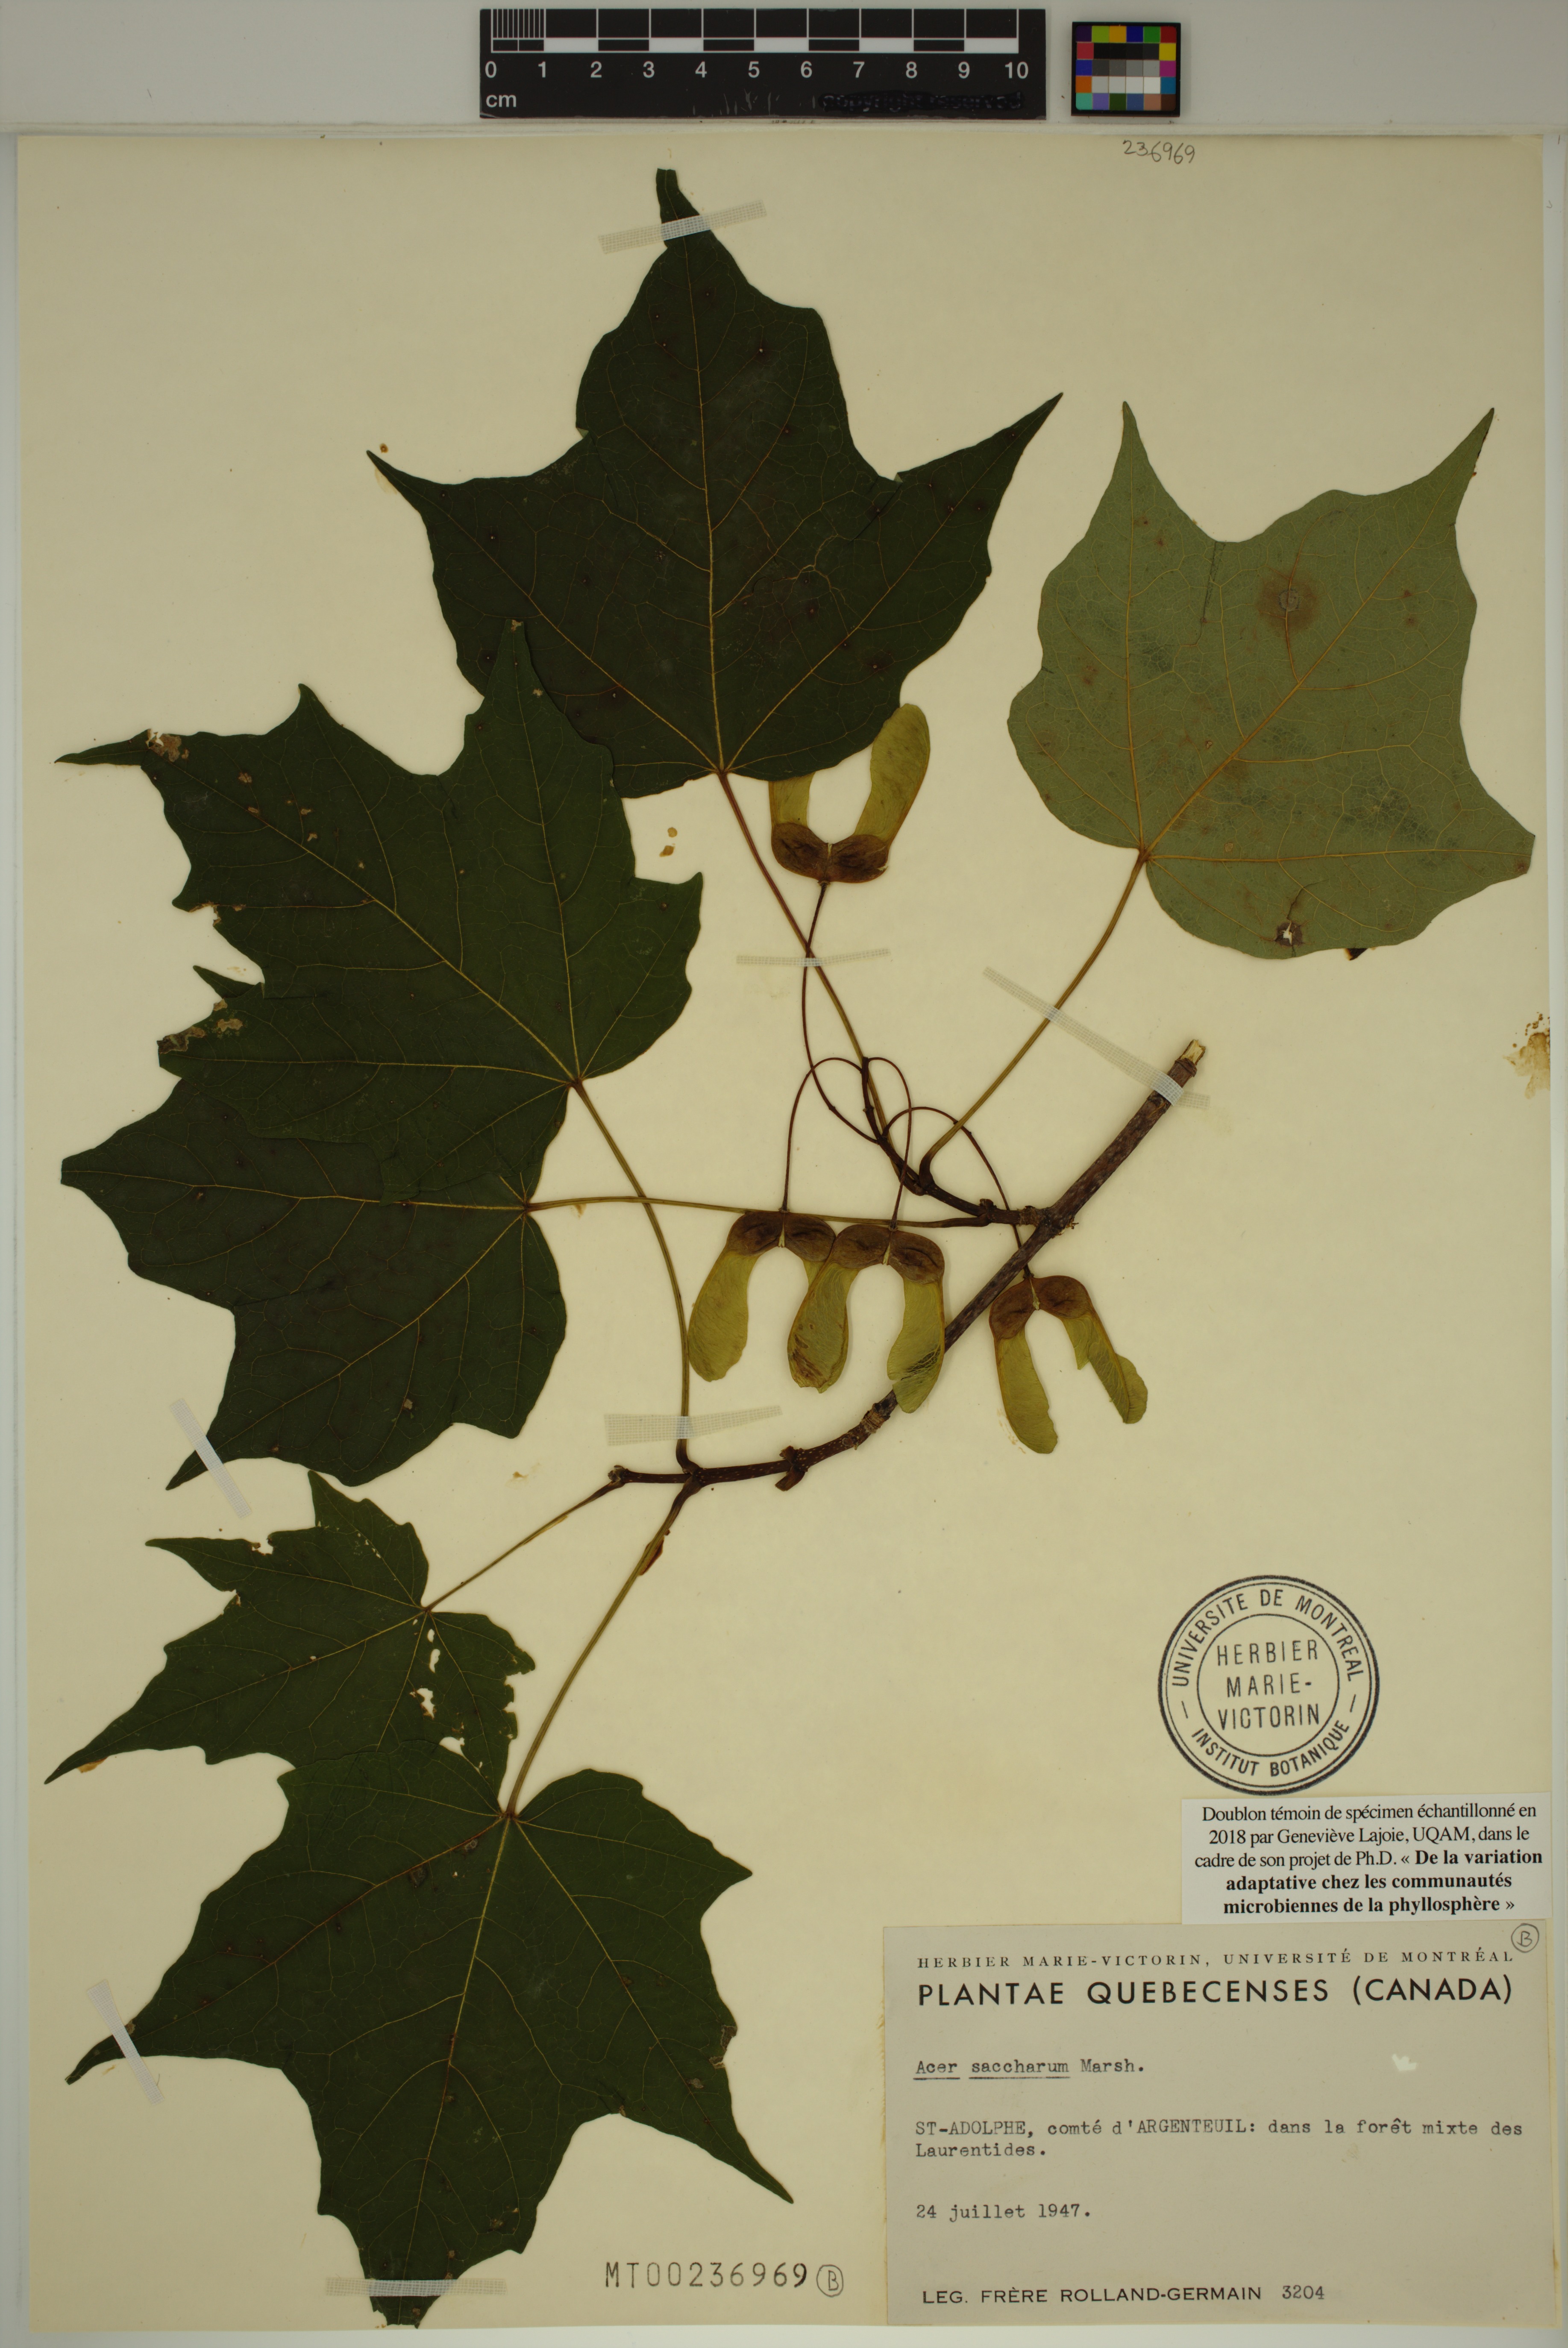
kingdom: Plantae
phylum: Tracheophyta
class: Magnoliopsida
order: Sapindales
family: Sapindaceae
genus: Acer
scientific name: Acer saccharum
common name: Sugar maple
